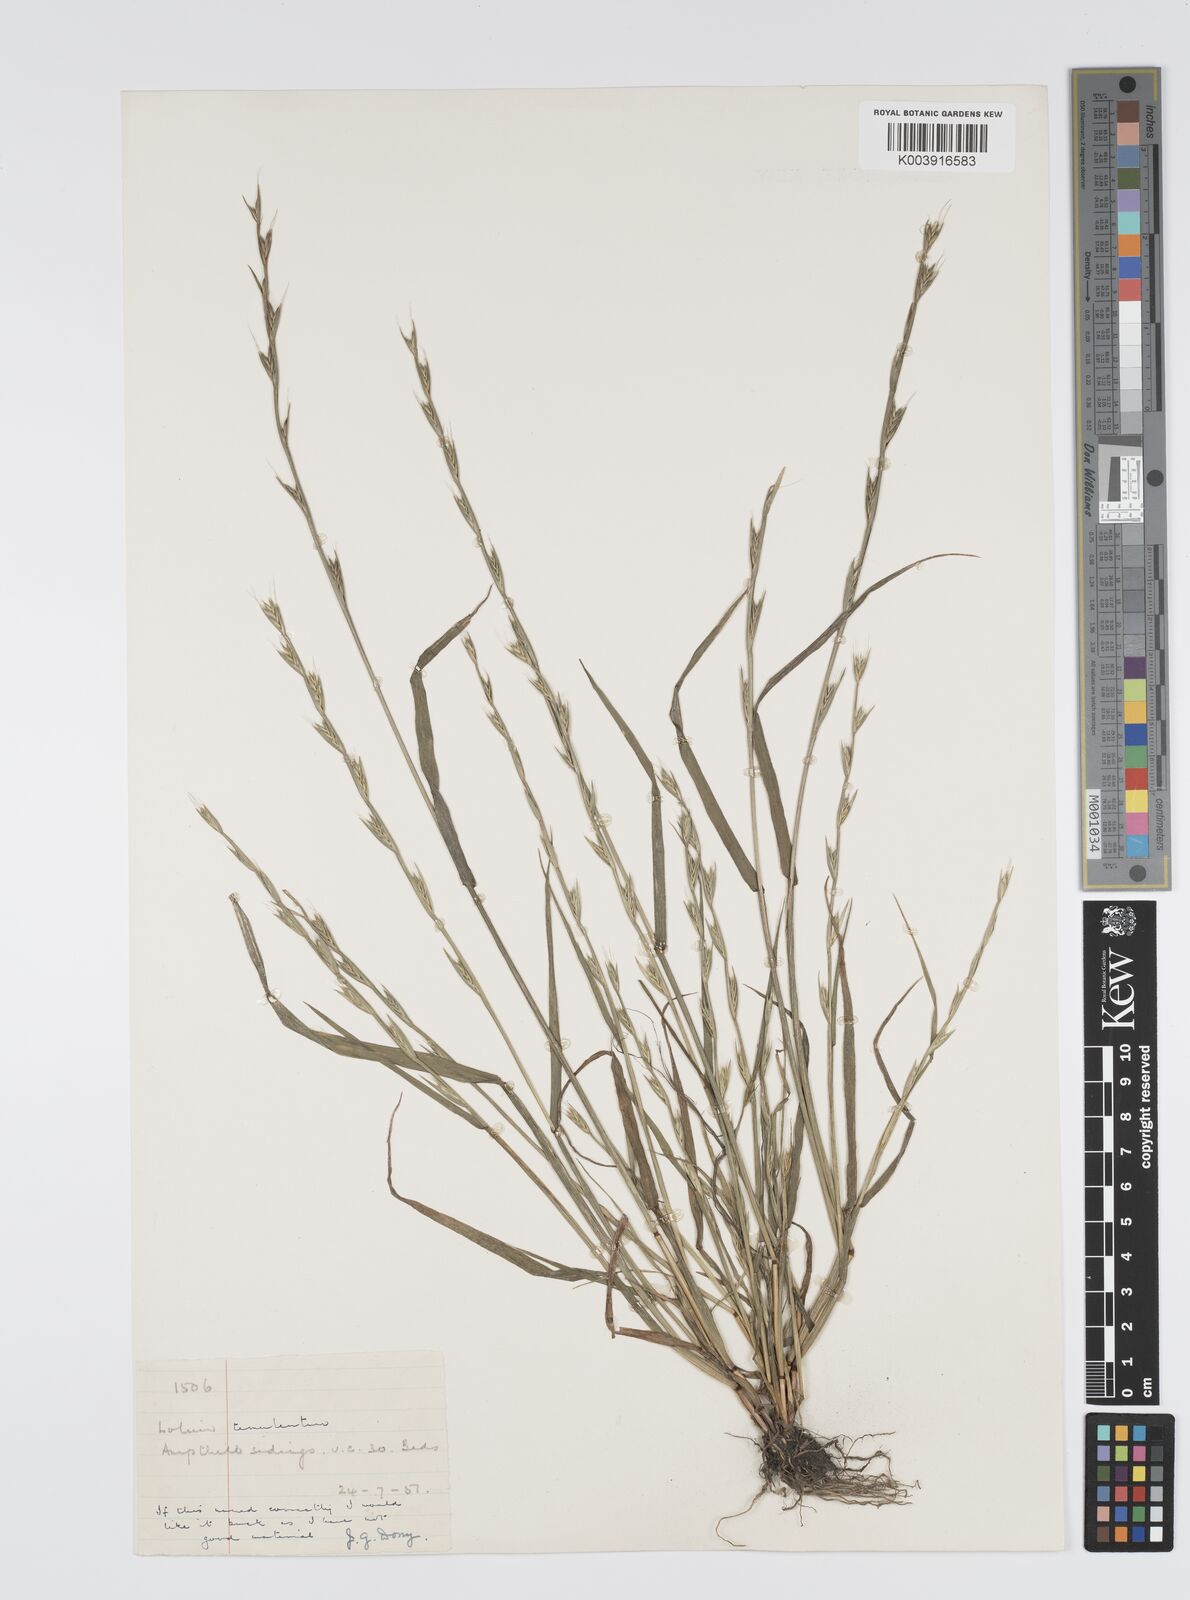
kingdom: Plantae
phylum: Tracheophyta
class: Liliopsida
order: Poales
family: Poaceae
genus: Lolium
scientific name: Lolium remotum
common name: Flaxfield rye-grass
